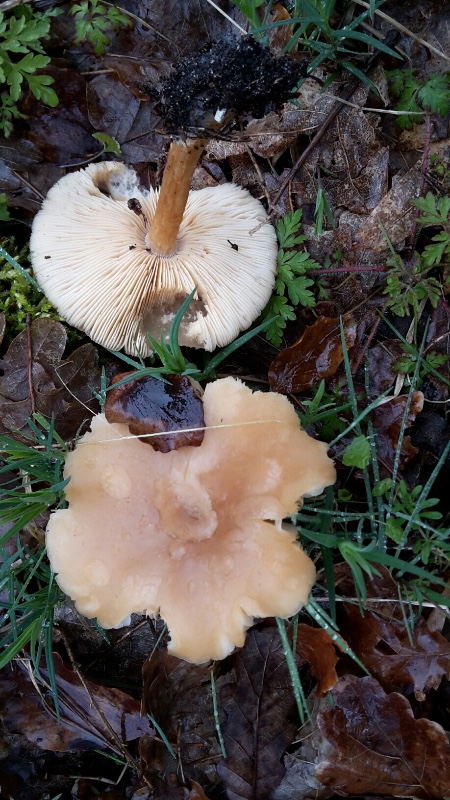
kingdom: Fungi
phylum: Basidiomycota
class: Agaricomycetes
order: Agaricales
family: Tricholomataceae
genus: Melanoleuca
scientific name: Melanoleuca cognata
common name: gyldengrå munkehat
